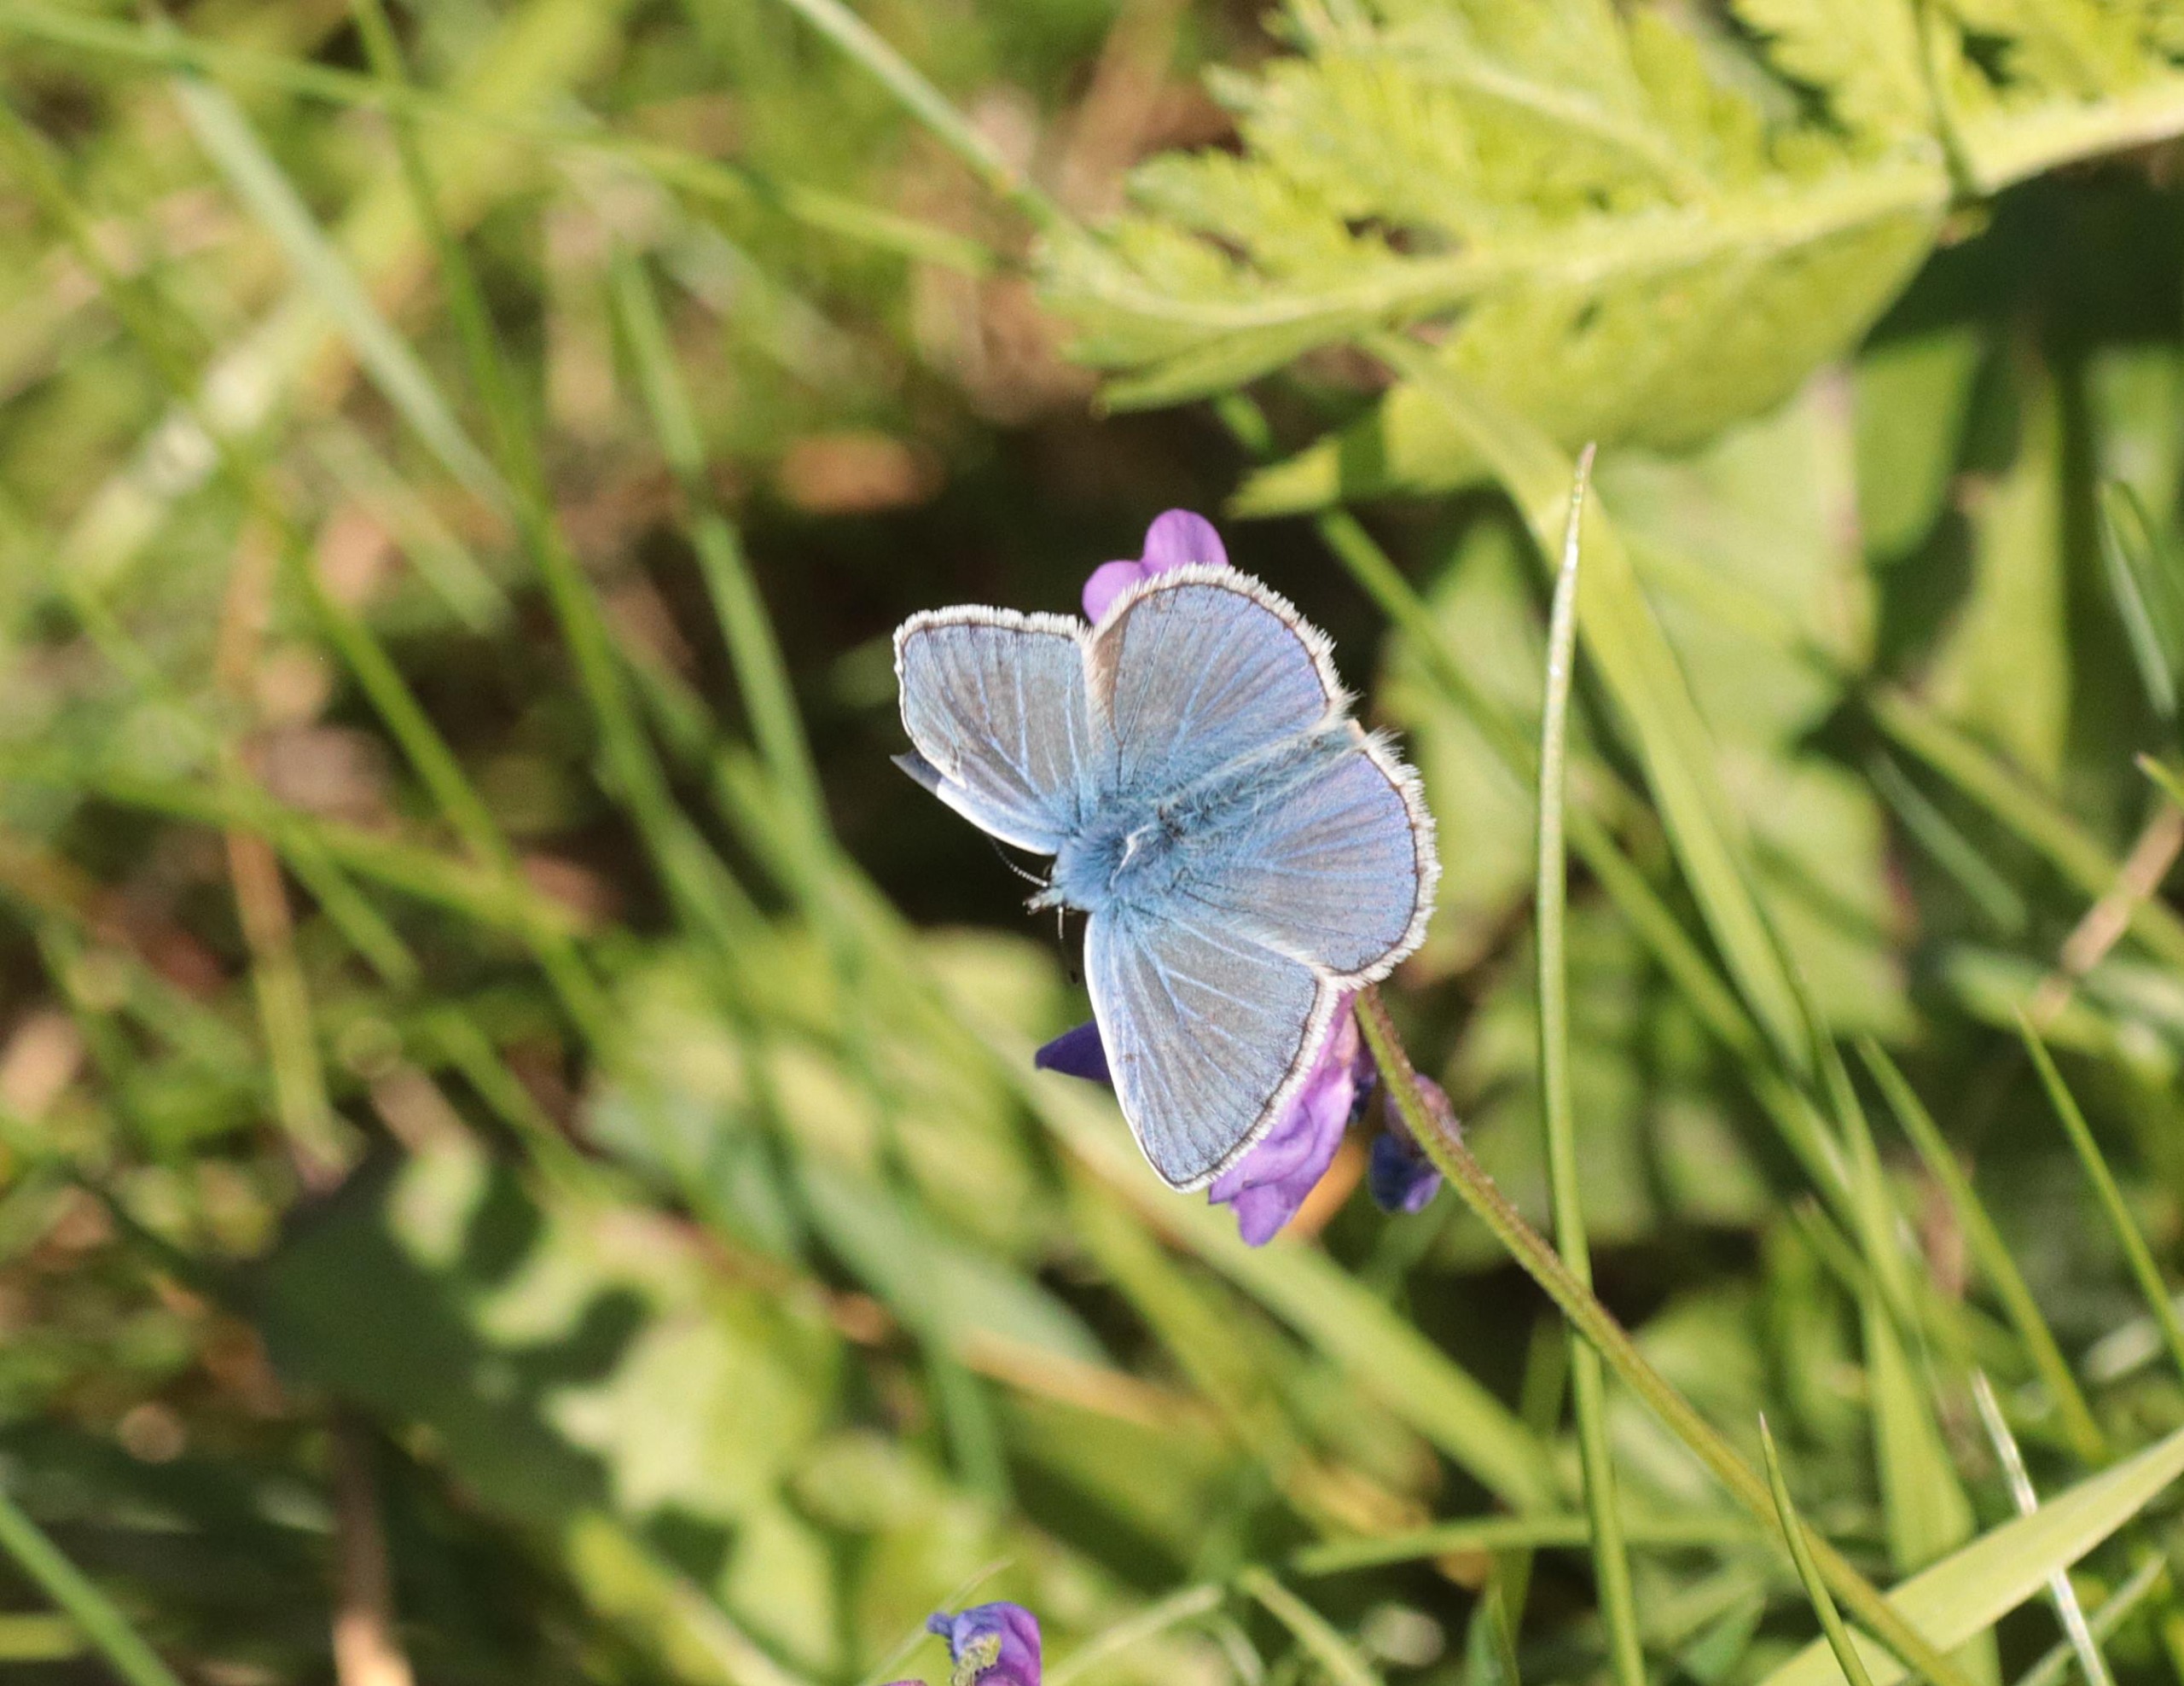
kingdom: Animalia
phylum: Arthropoda
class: Insecta
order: Lepidoptera
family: Lycaenidae
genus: Polyommatus
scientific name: Polyommatus icarus
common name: Almindelig blåfugl
